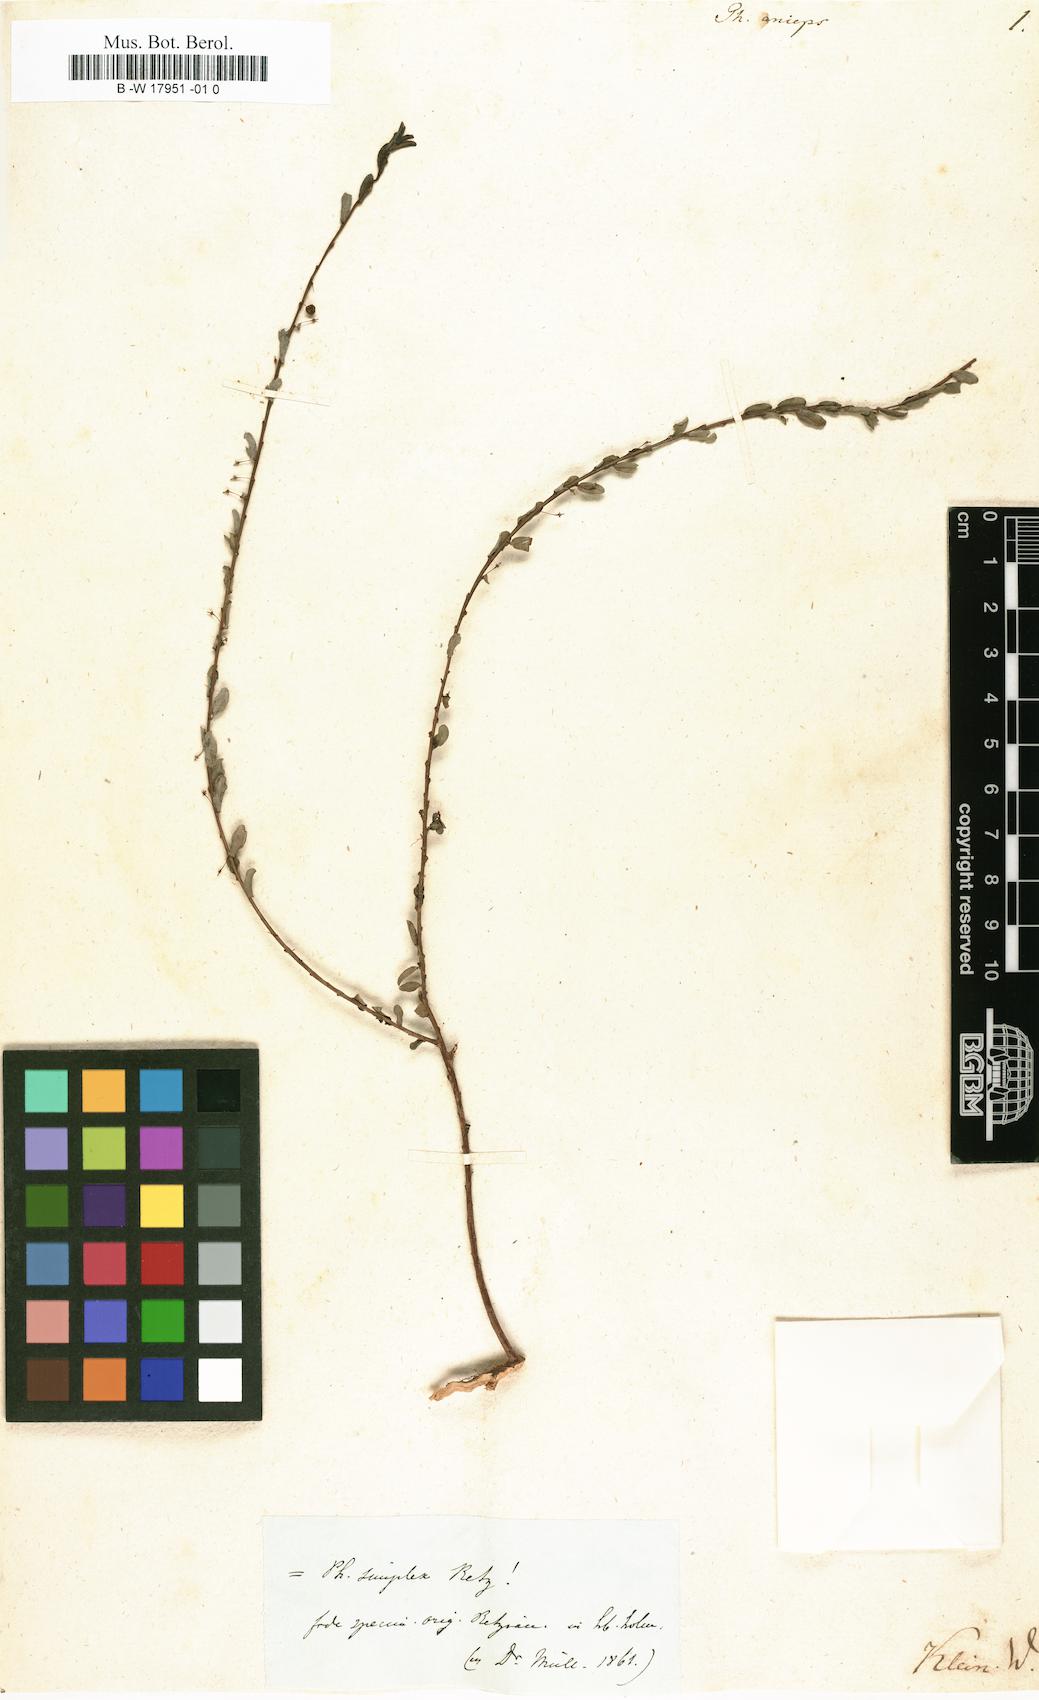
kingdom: Plantae
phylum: Tracheophyta
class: Magnoliopsida
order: Malpighiales
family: Phyllanthaceae
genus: Phyllanthus
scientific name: Phyllanthus anceps
